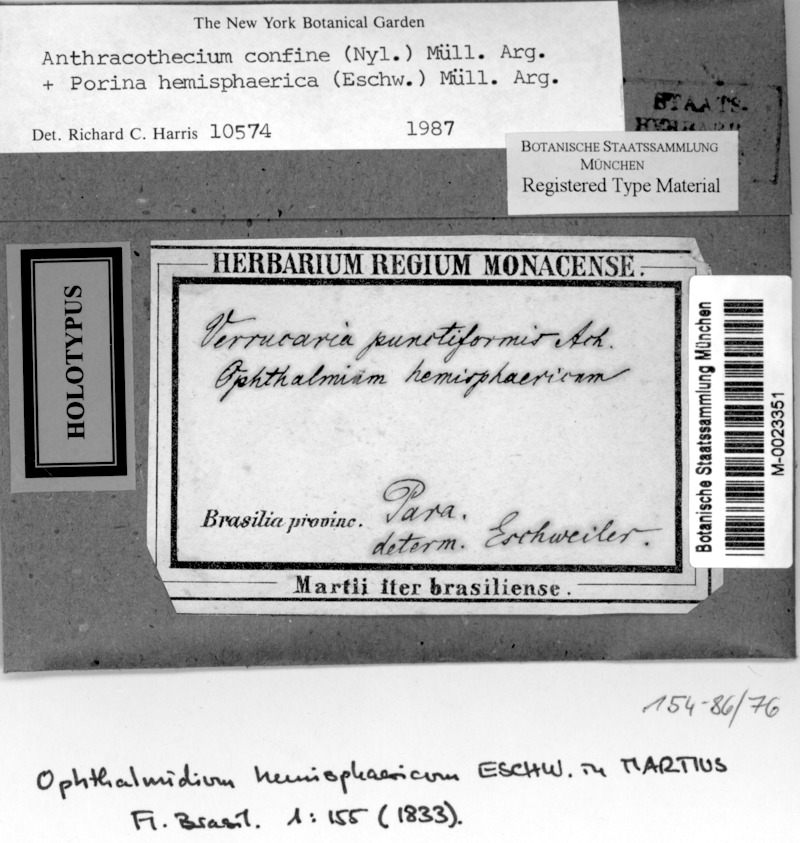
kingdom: Fungi
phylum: Ascomycota
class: Lecanoromycetes
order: Pertusariales
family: Pertusariaceae
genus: Porina
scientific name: Porina
